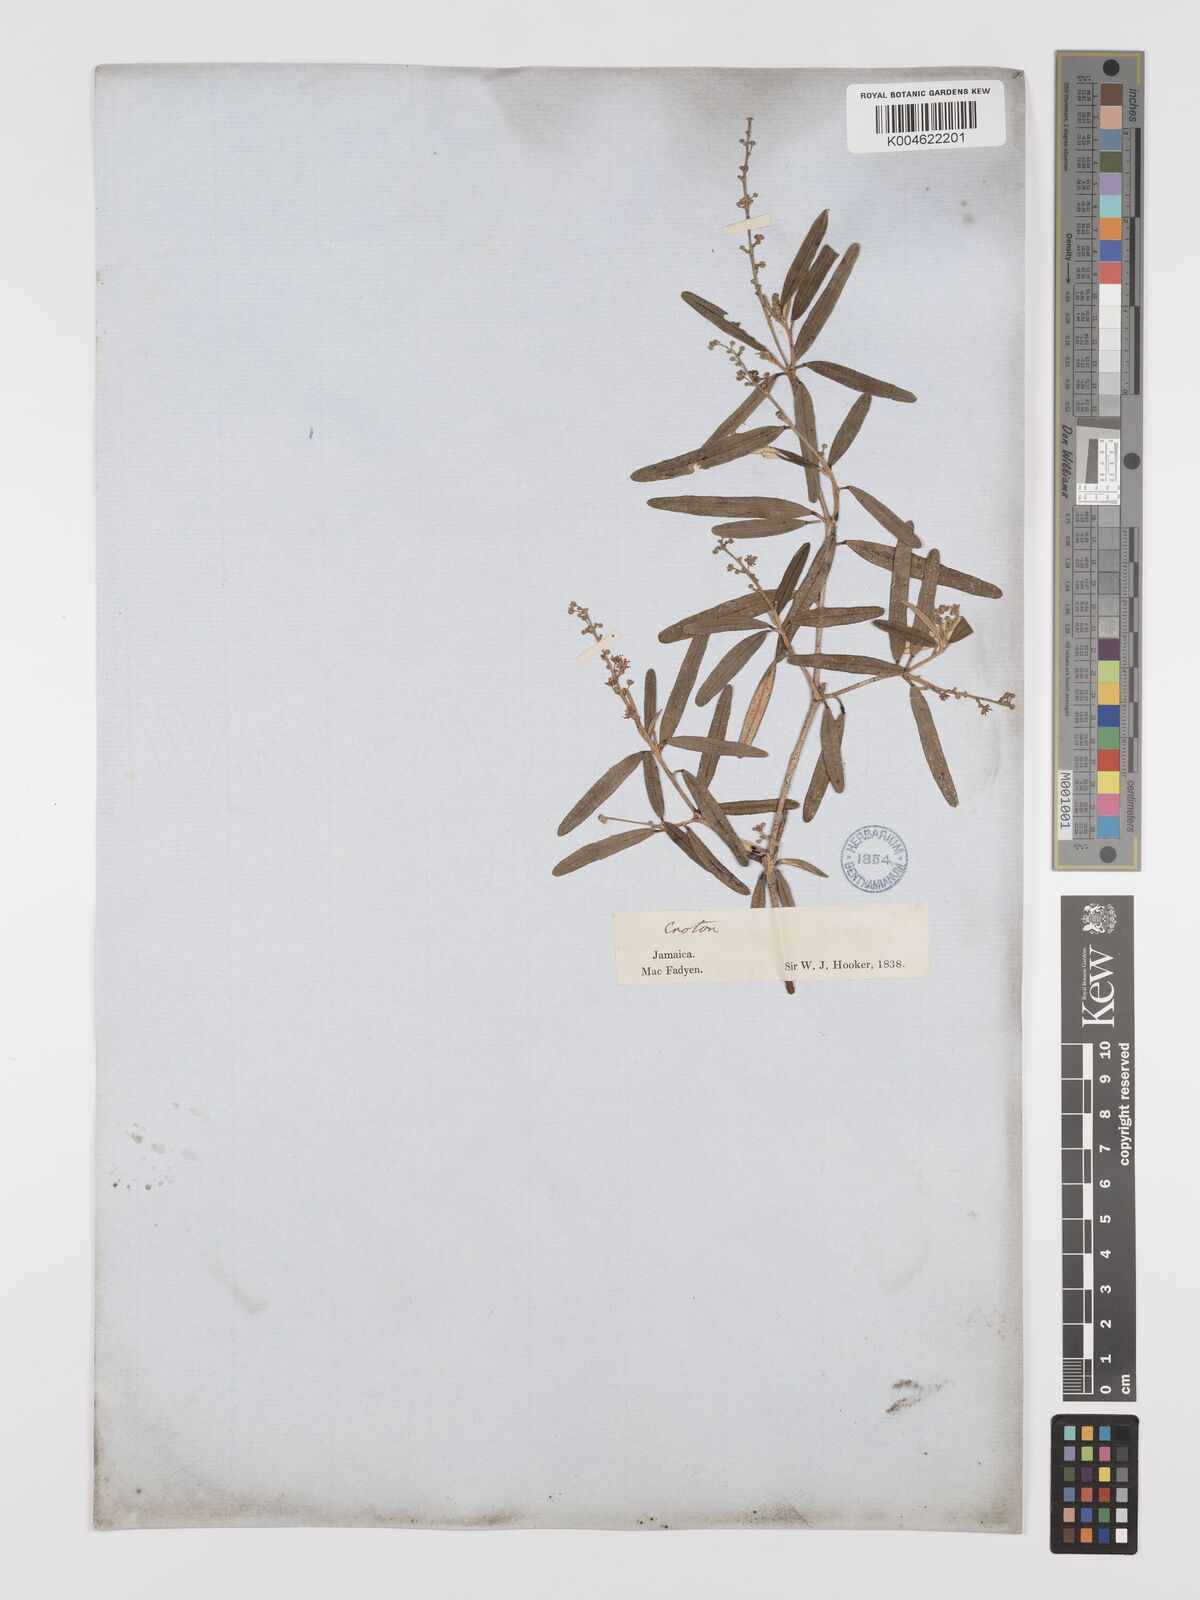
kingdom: Plantae
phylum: Tracheophyta
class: Magnoliopsida
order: Malpighiales
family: Euphorbiaceae
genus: Croton
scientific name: Croton linearis
